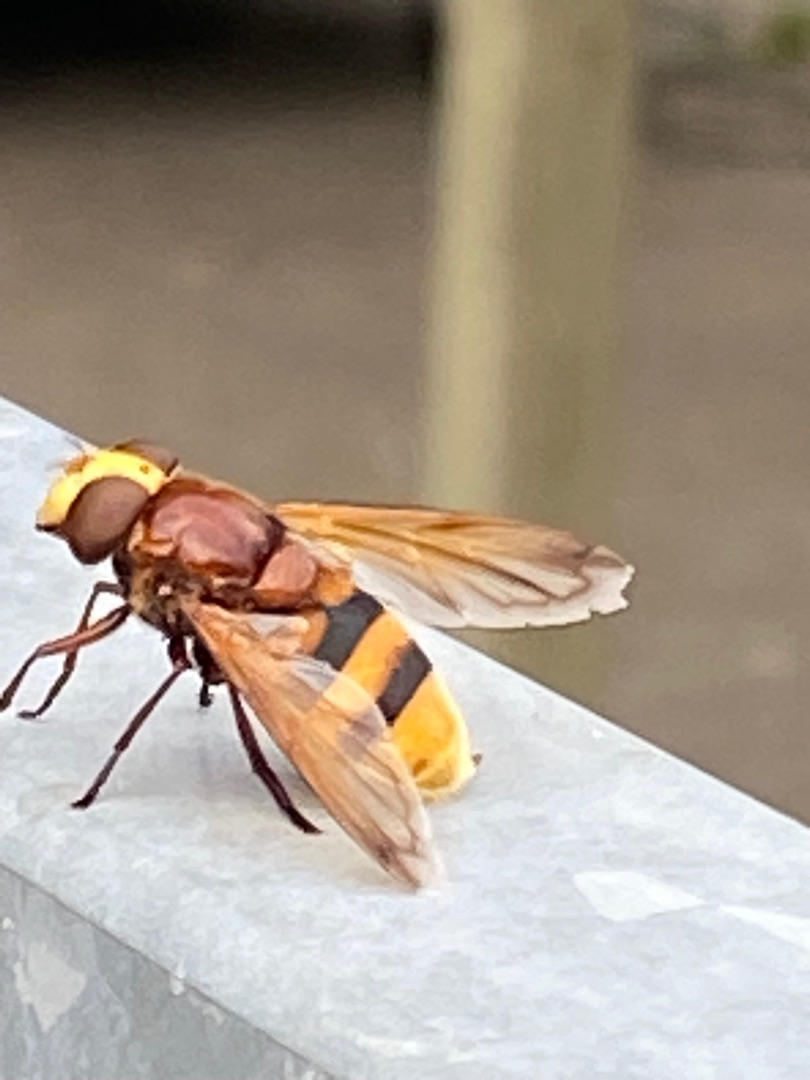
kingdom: Animalia
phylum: Arthropoda
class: Insecta
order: Diptera
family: Syrphidae
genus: Volucella
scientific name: Volucella zonaria
